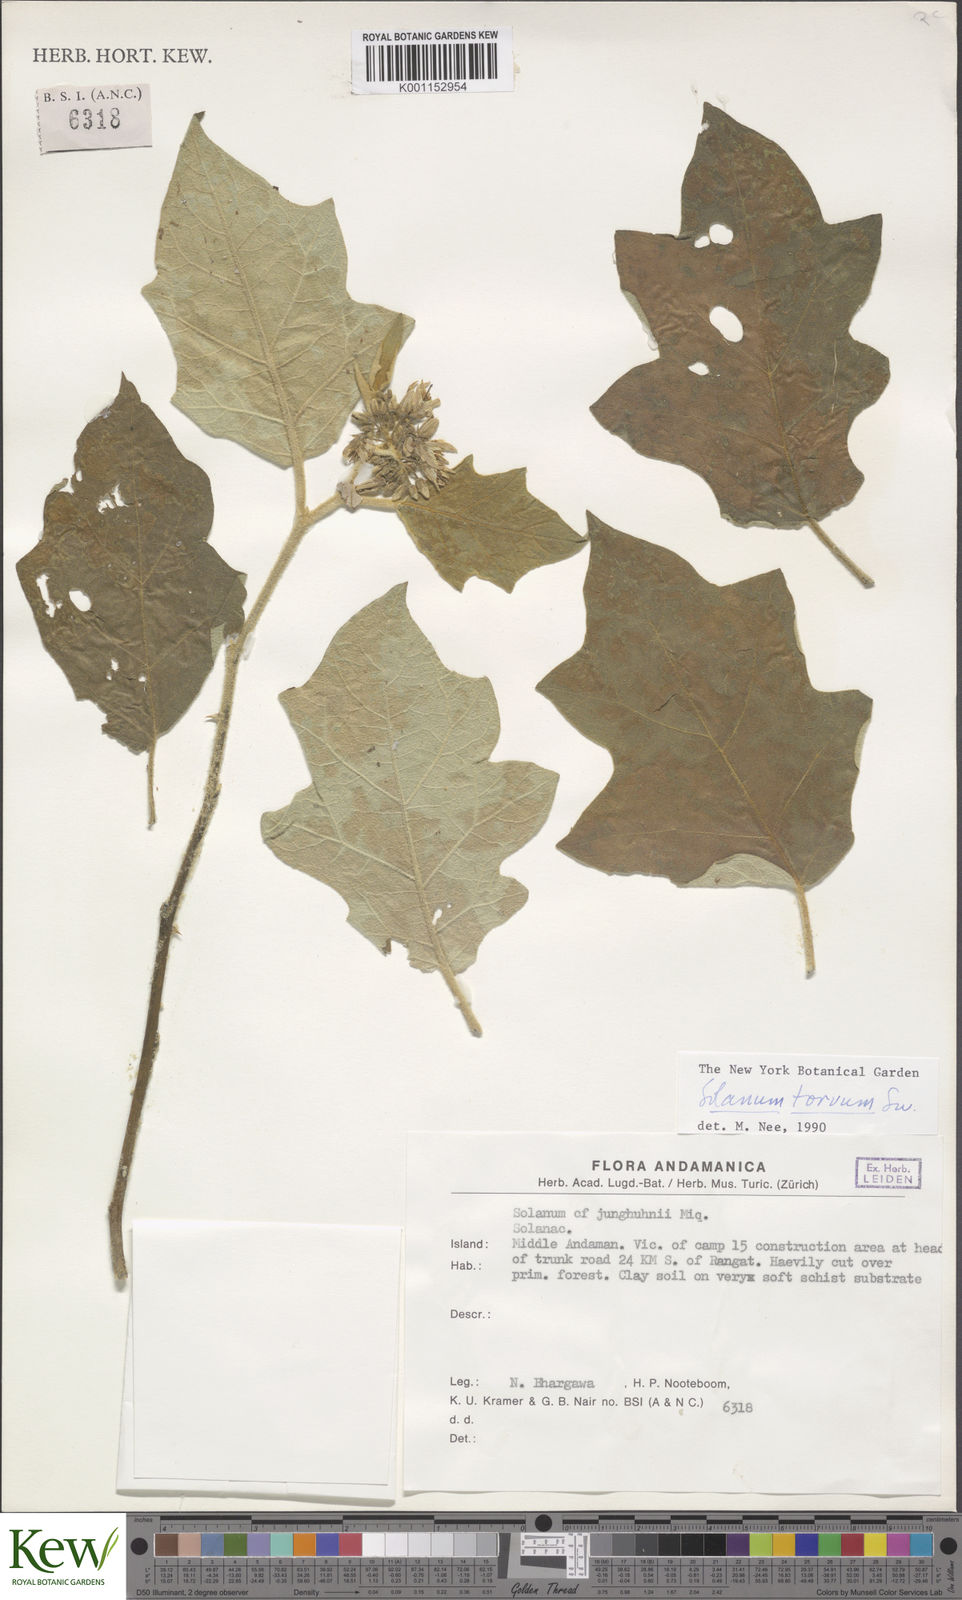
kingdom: Plantae
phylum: Tracheophyta
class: Magnoliopsida
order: Solanales
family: Solanaceae
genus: Solanum
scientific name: Solanum torvum
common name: Turkey berry
